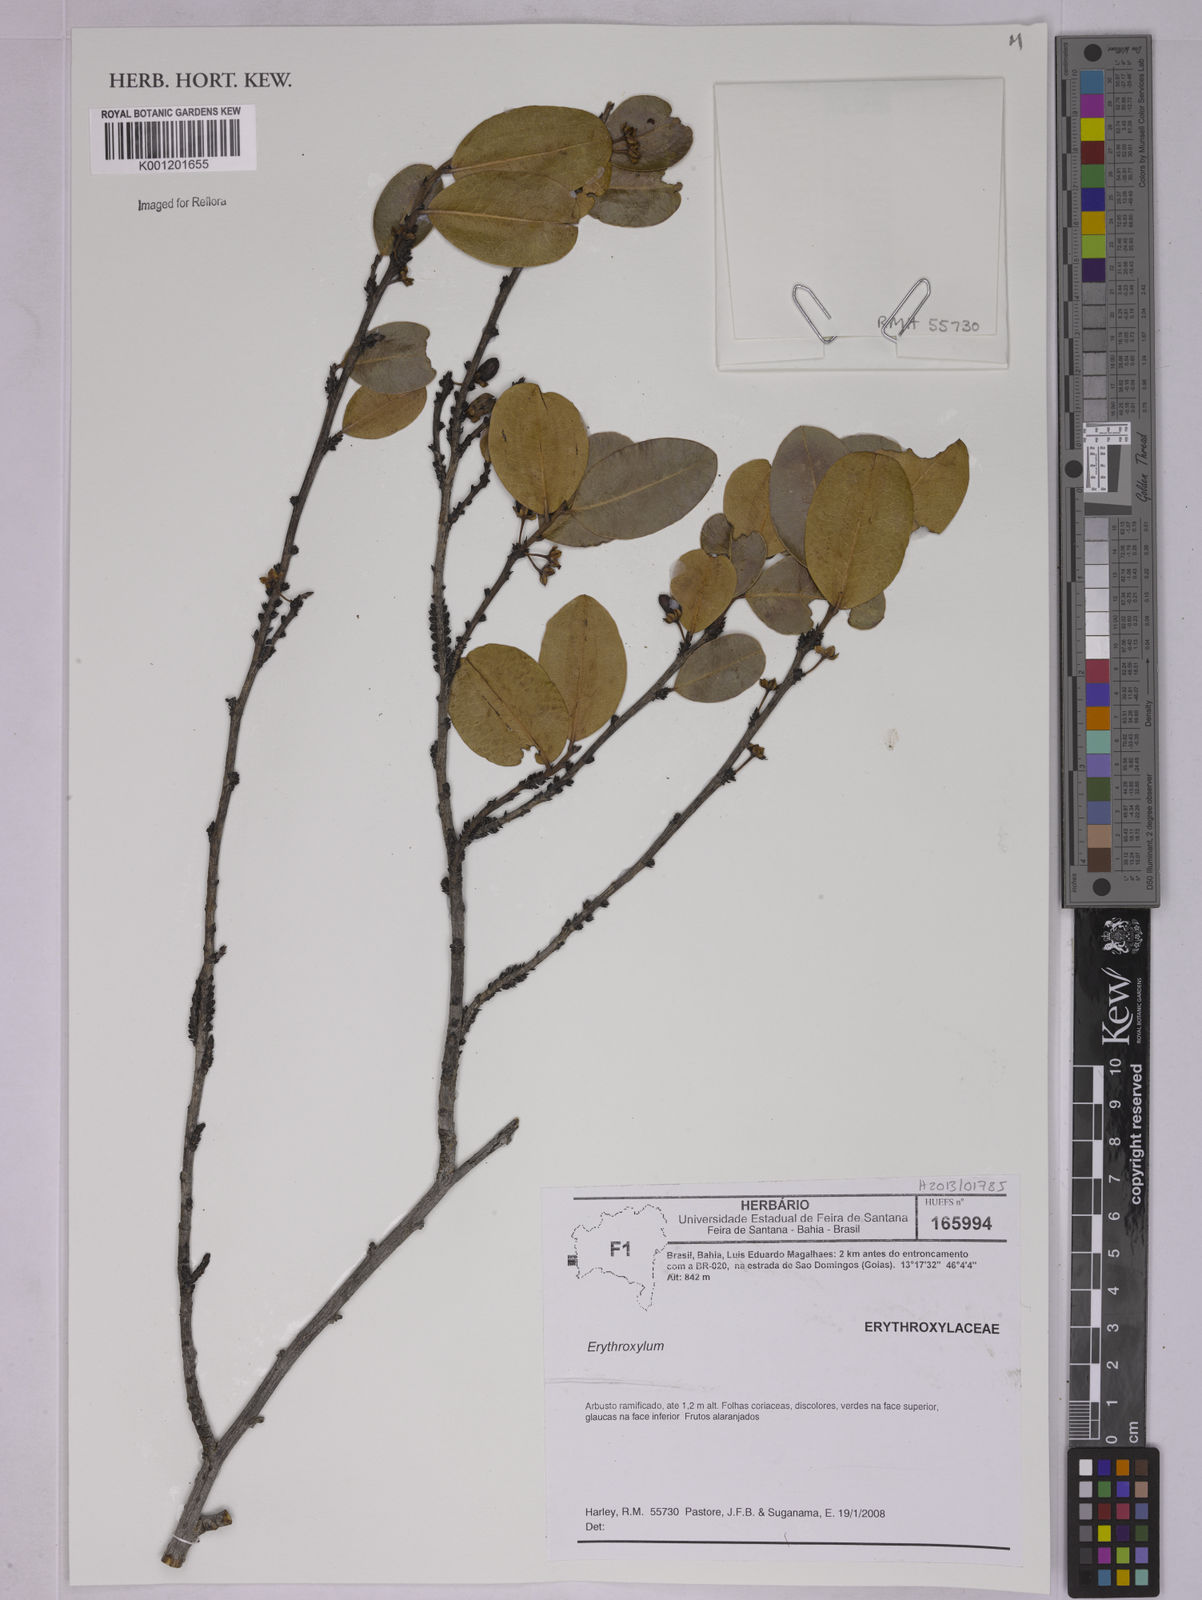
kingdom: Plantae
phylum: Tracheophyta
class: Magnoliopsida
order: Malpighiales
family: Erythroxylaceae
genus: Erythroxylum
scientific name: Erythroxylum
